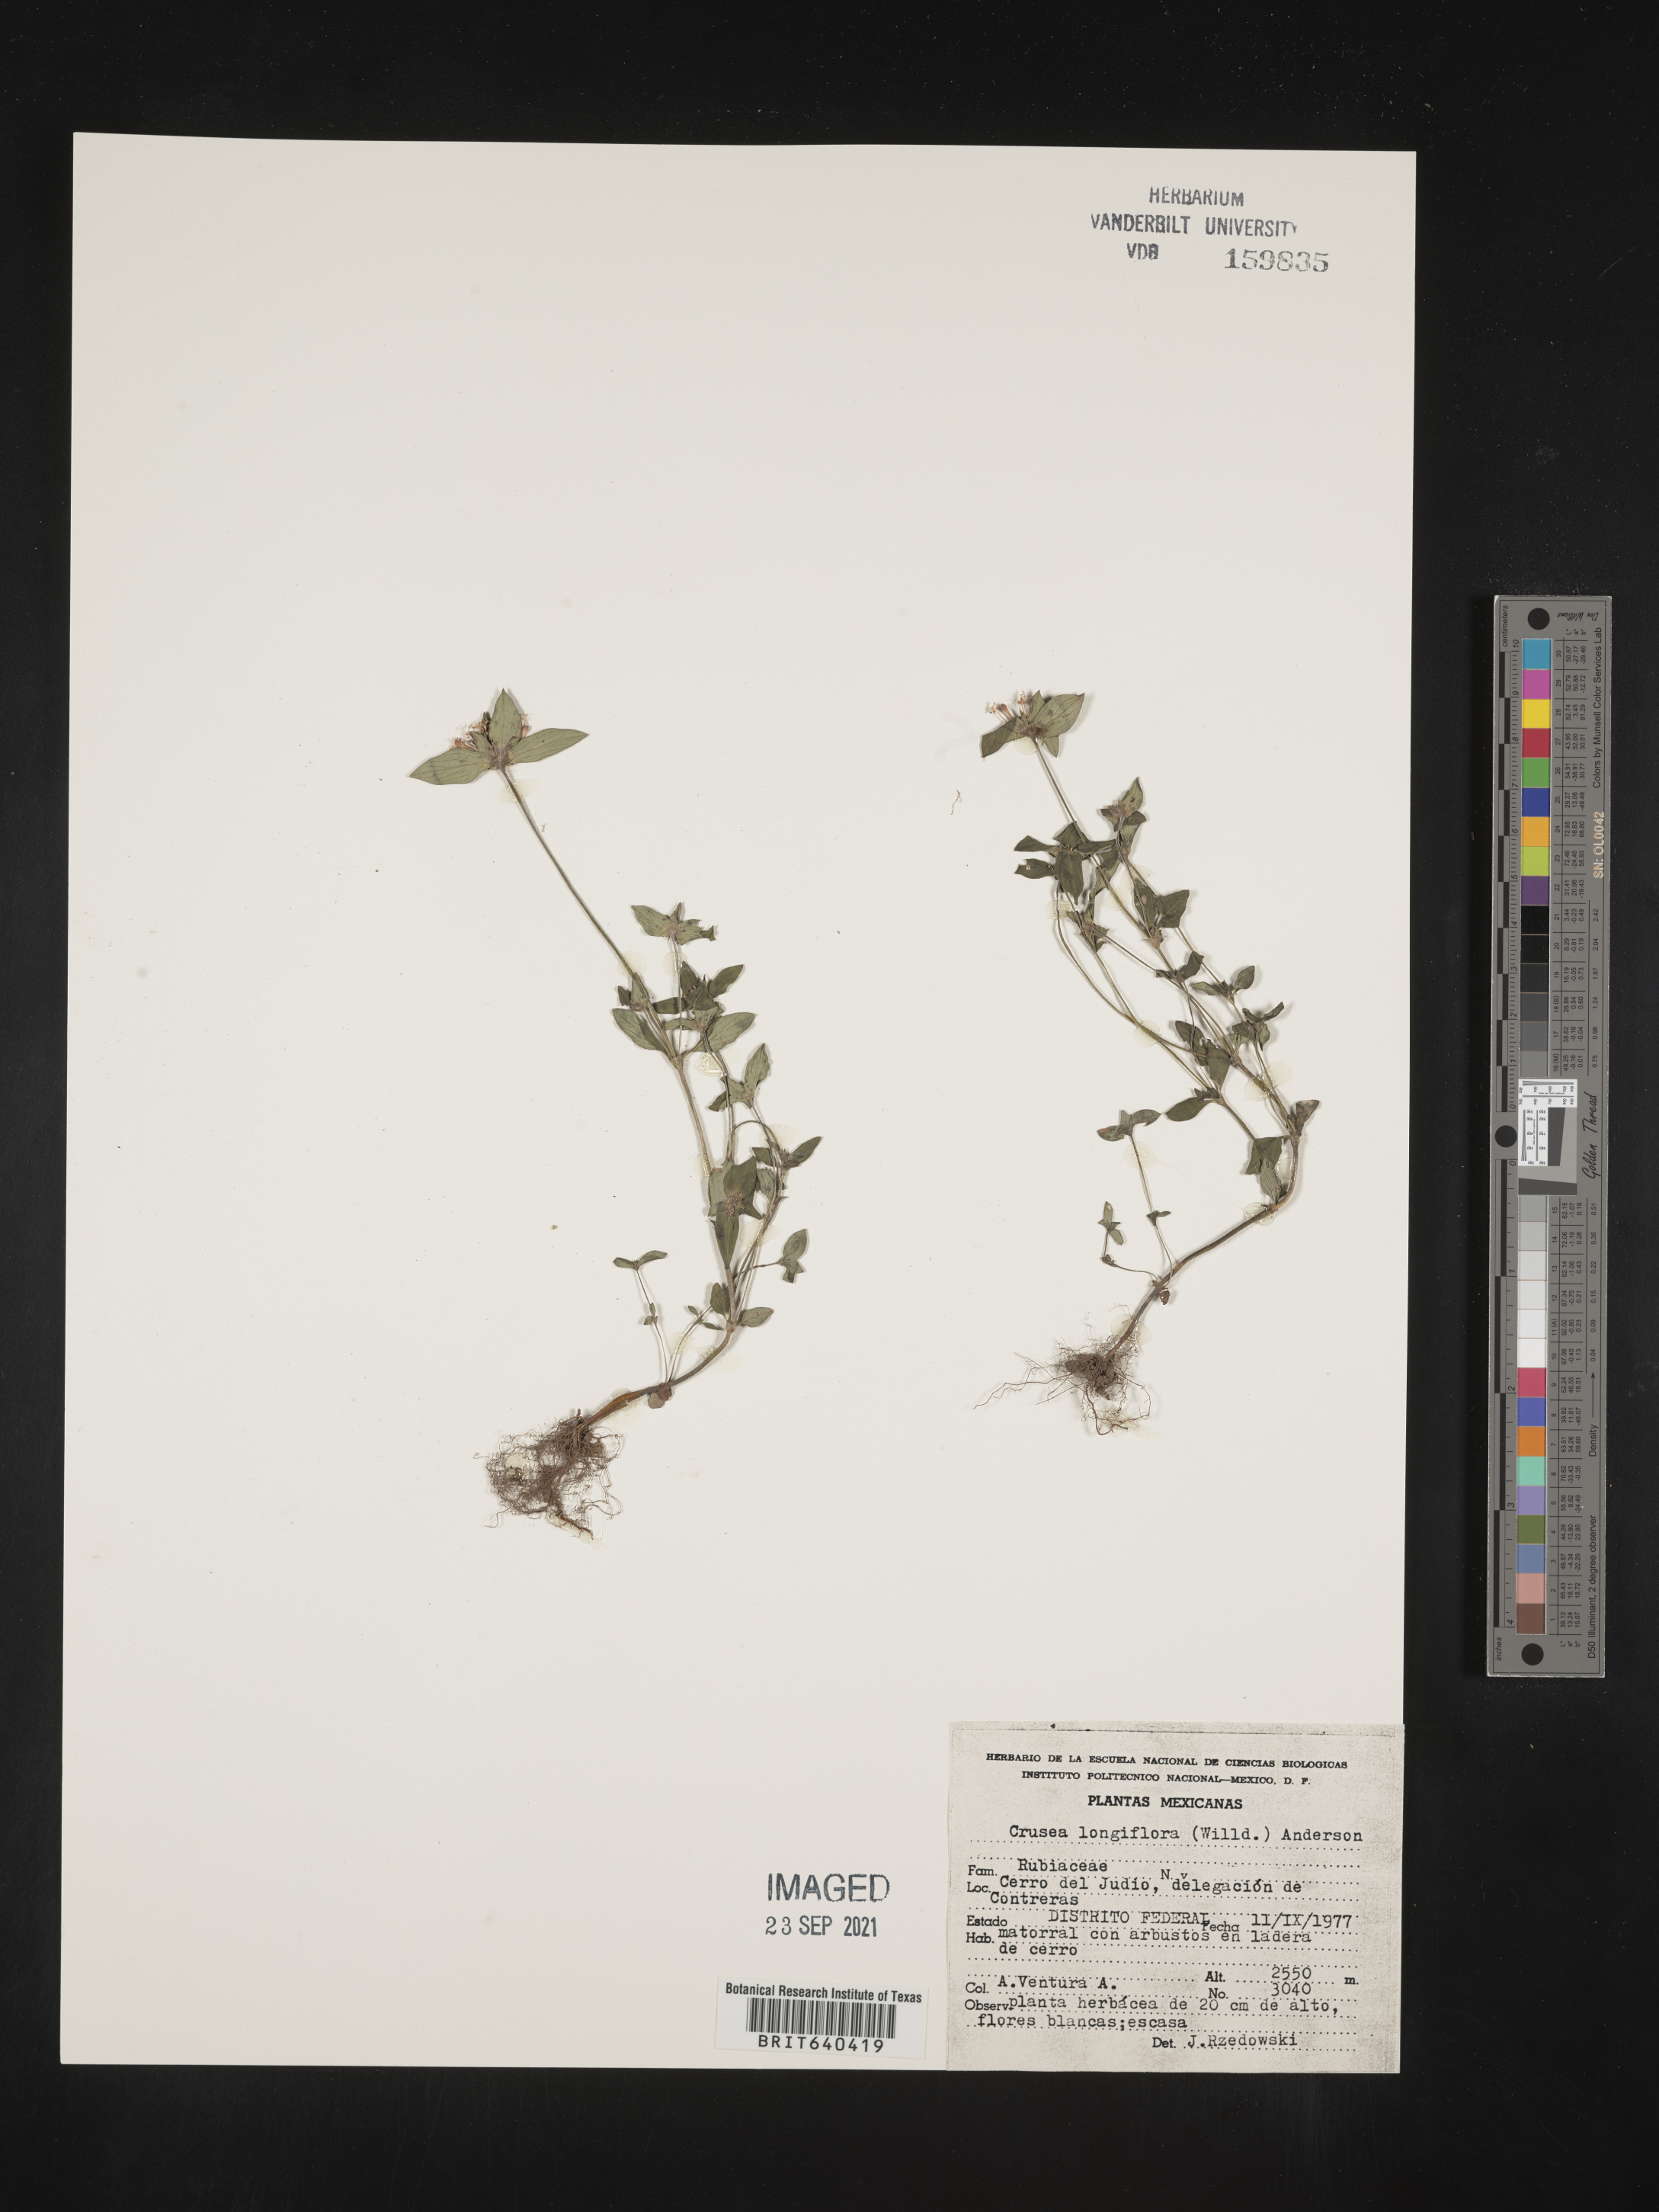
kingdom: Plantae
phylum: Tracheophyta
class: Magnoliopsida
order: Gentianales
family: Rubiaceae
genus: Crusea
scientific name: Crusea
